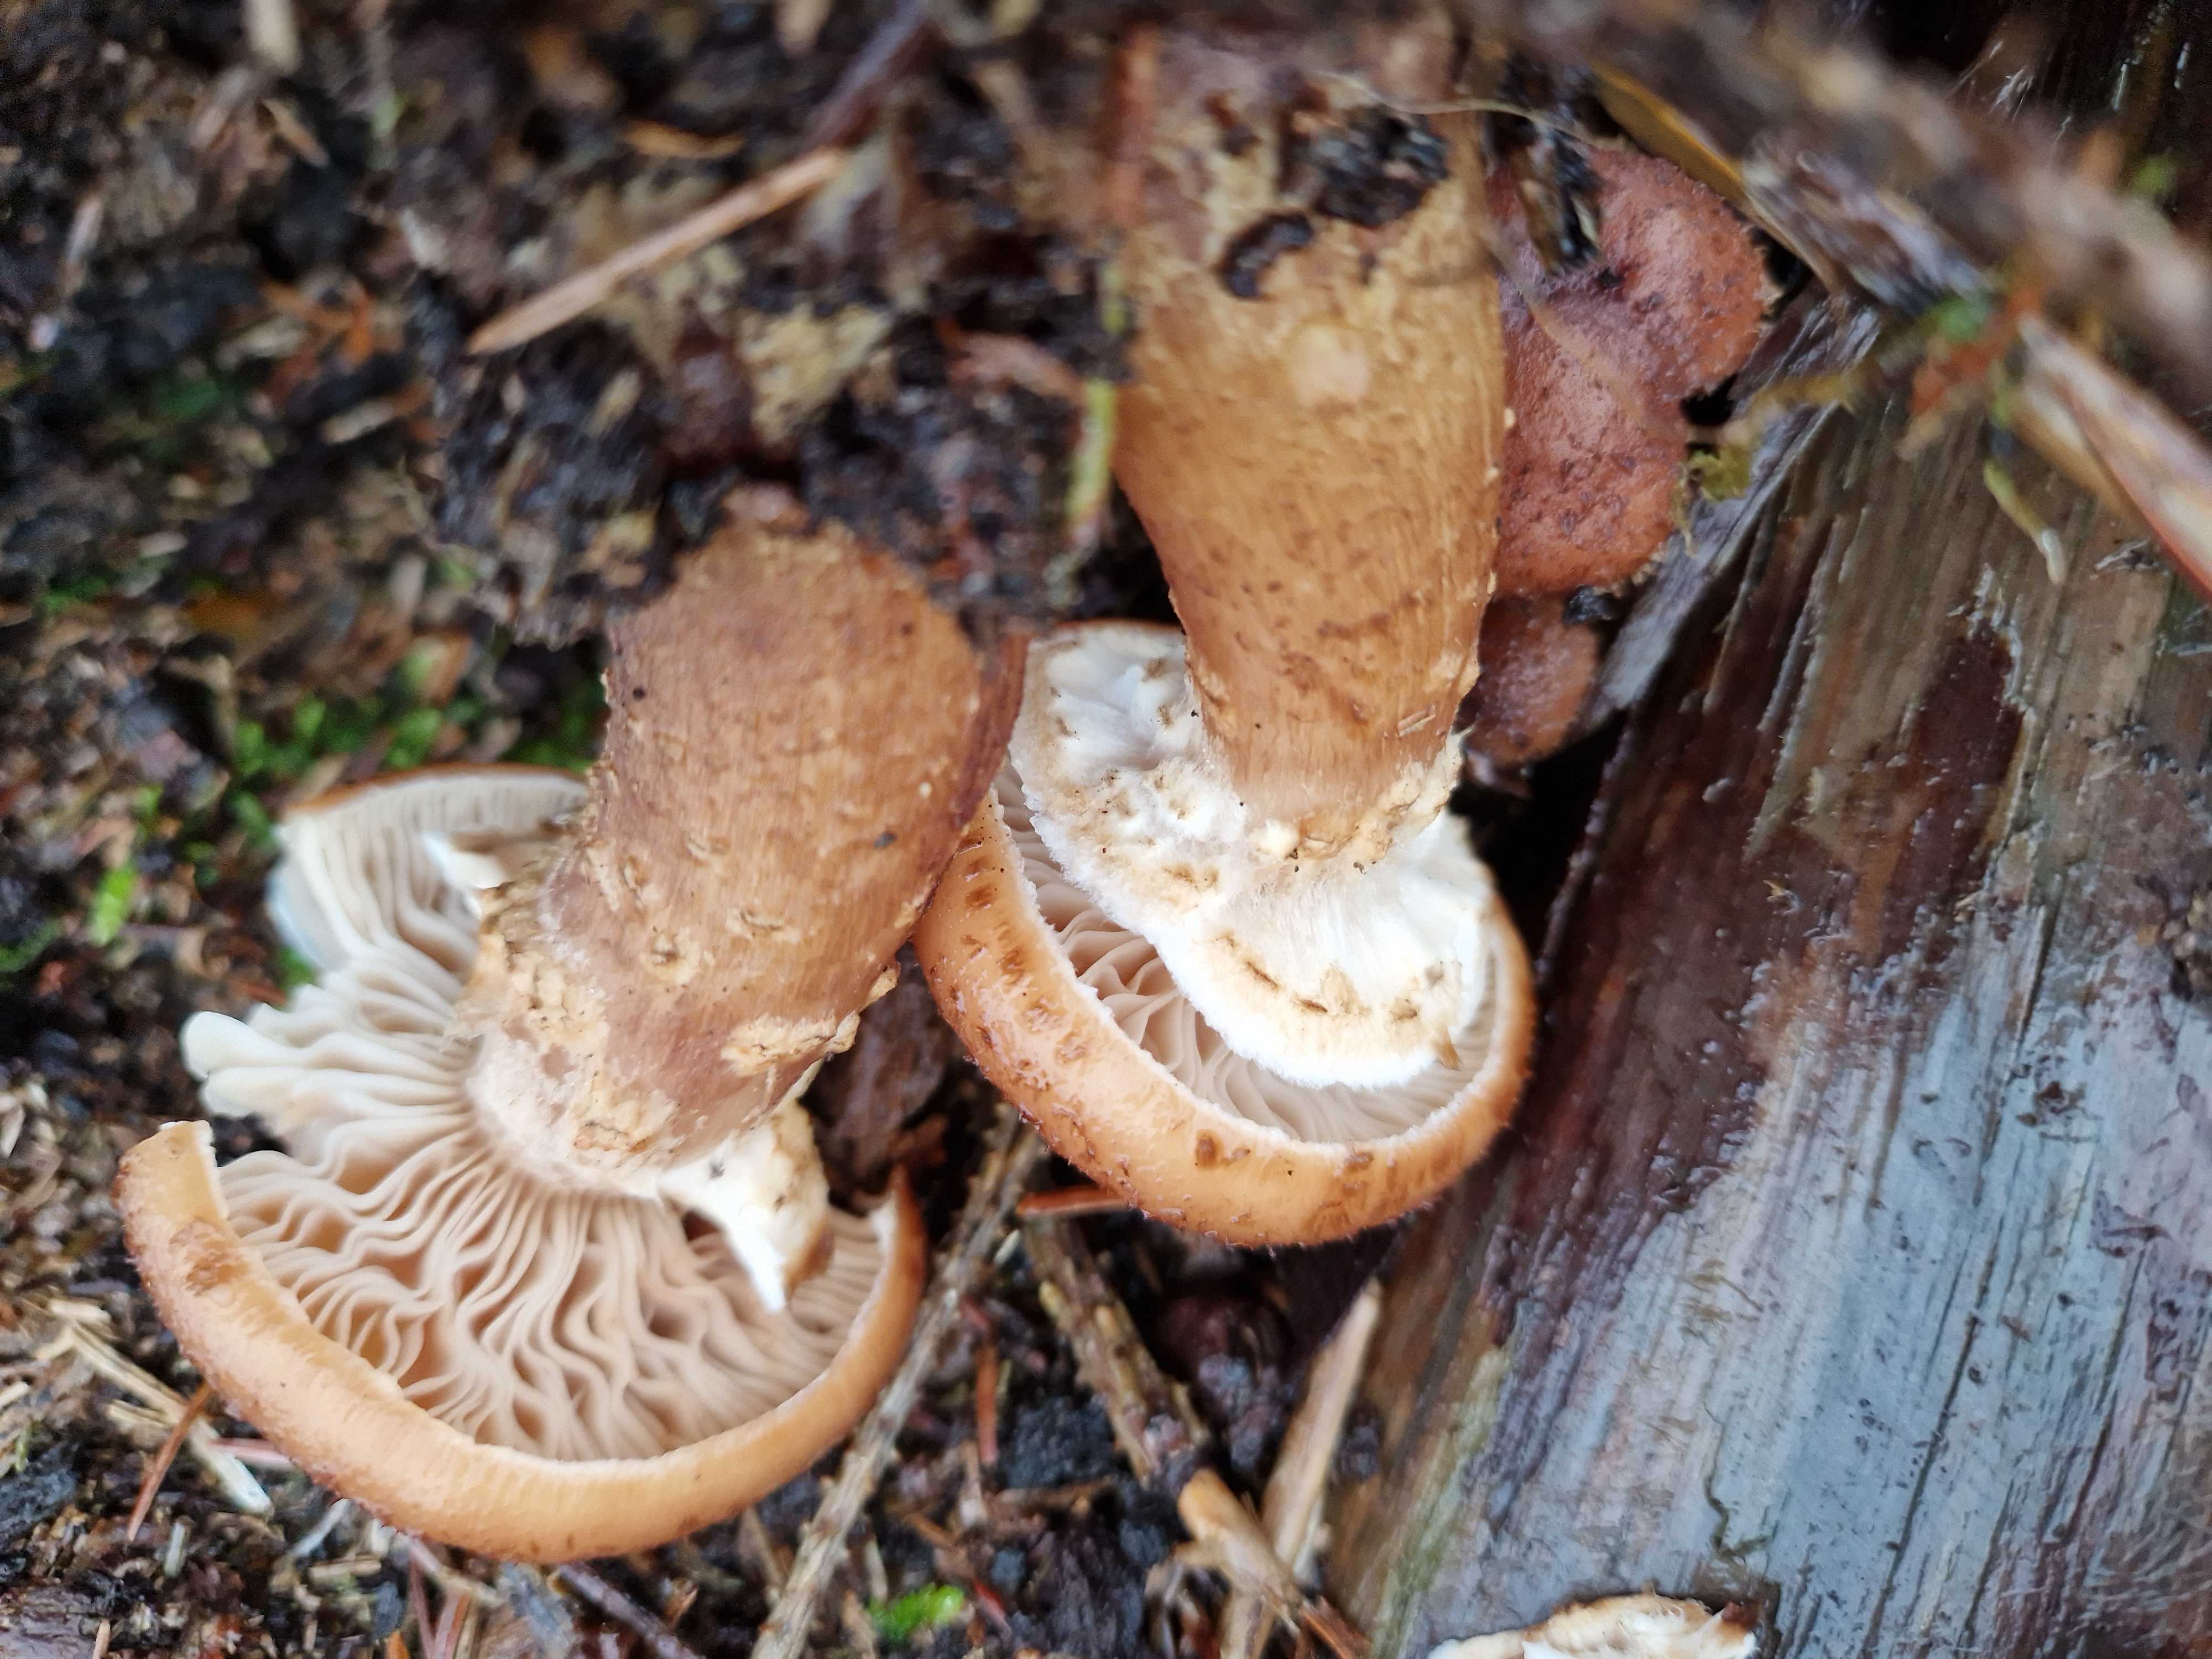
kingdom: Fungi
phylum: Basidiomycota
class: Agaricomycetes
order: Agaricales
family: Physalacriaceae
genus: Armillaria
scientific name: Armillaria ostoyae
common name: mørk honningsvamp
